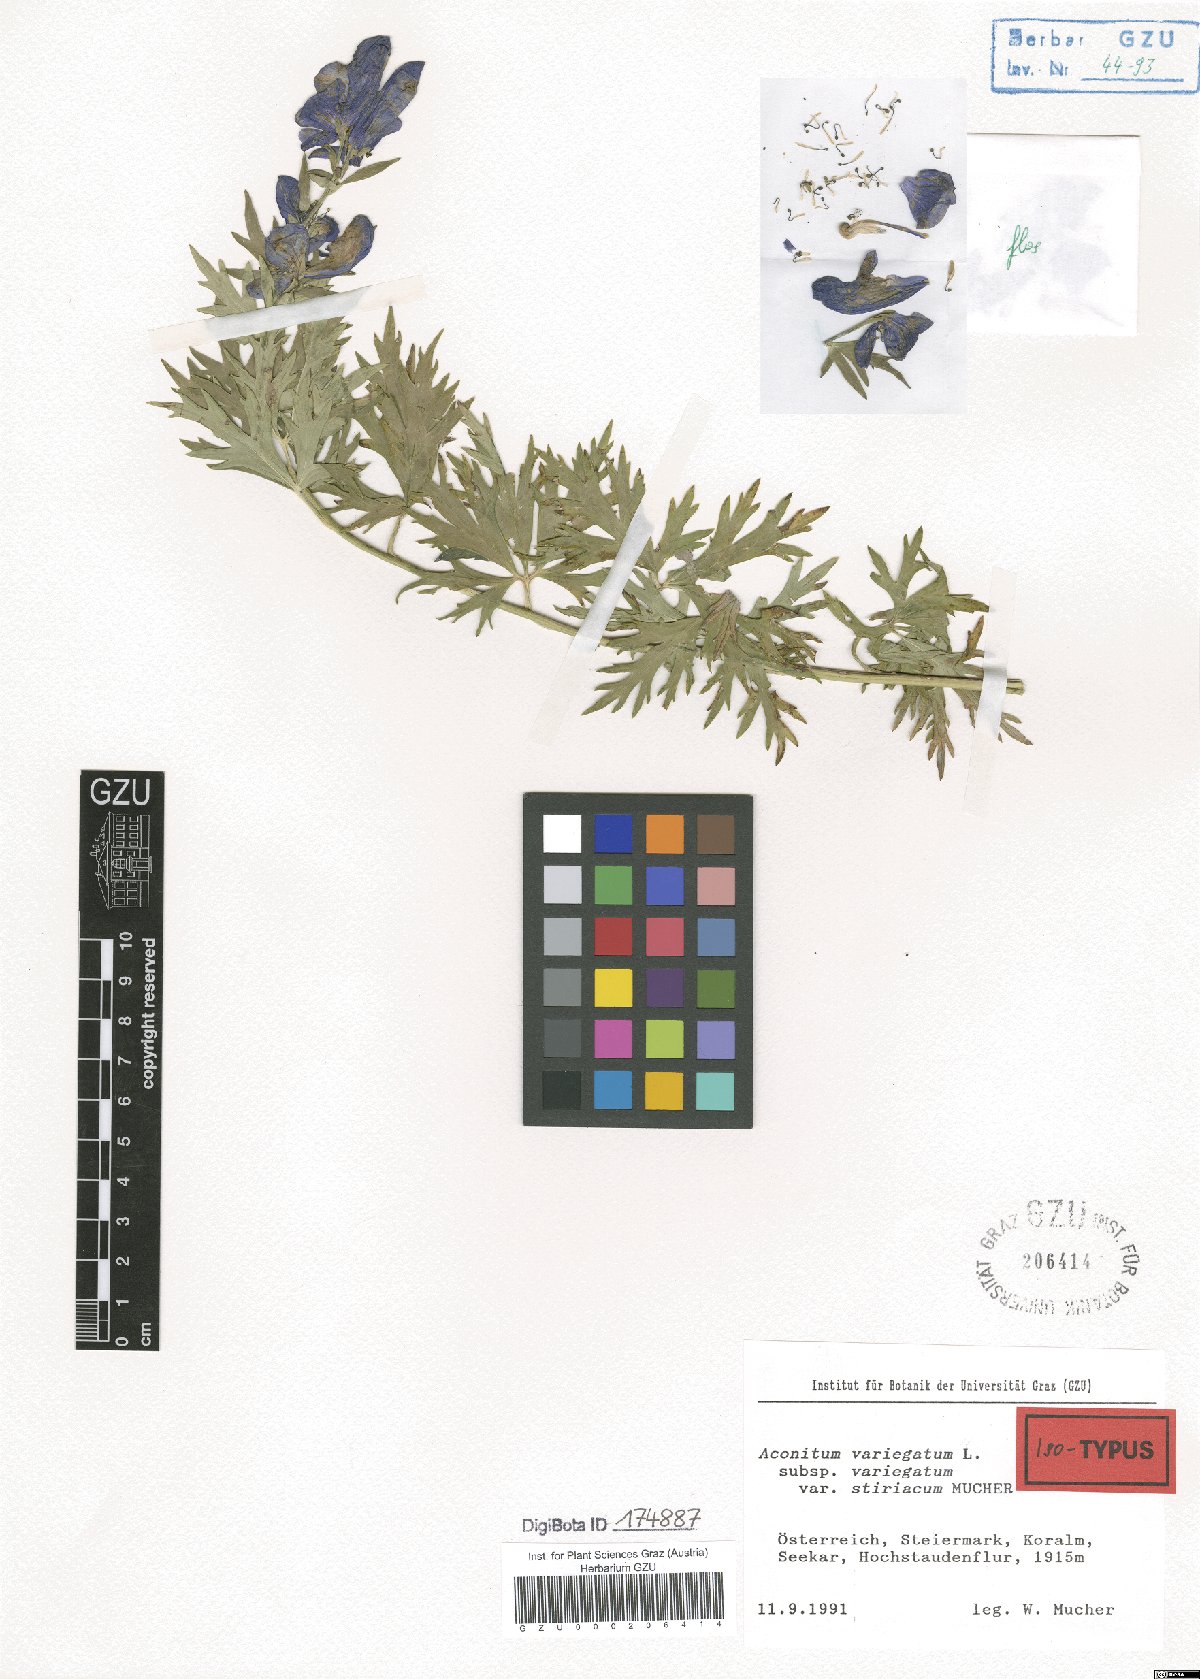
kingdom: Plantae
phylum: Tracheophyta
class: Magnoliopsida
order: Ranunculales
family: Ranunculaceae
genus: Aconitum
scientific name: Aconitum variegatum
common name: Manchurian monkshood
